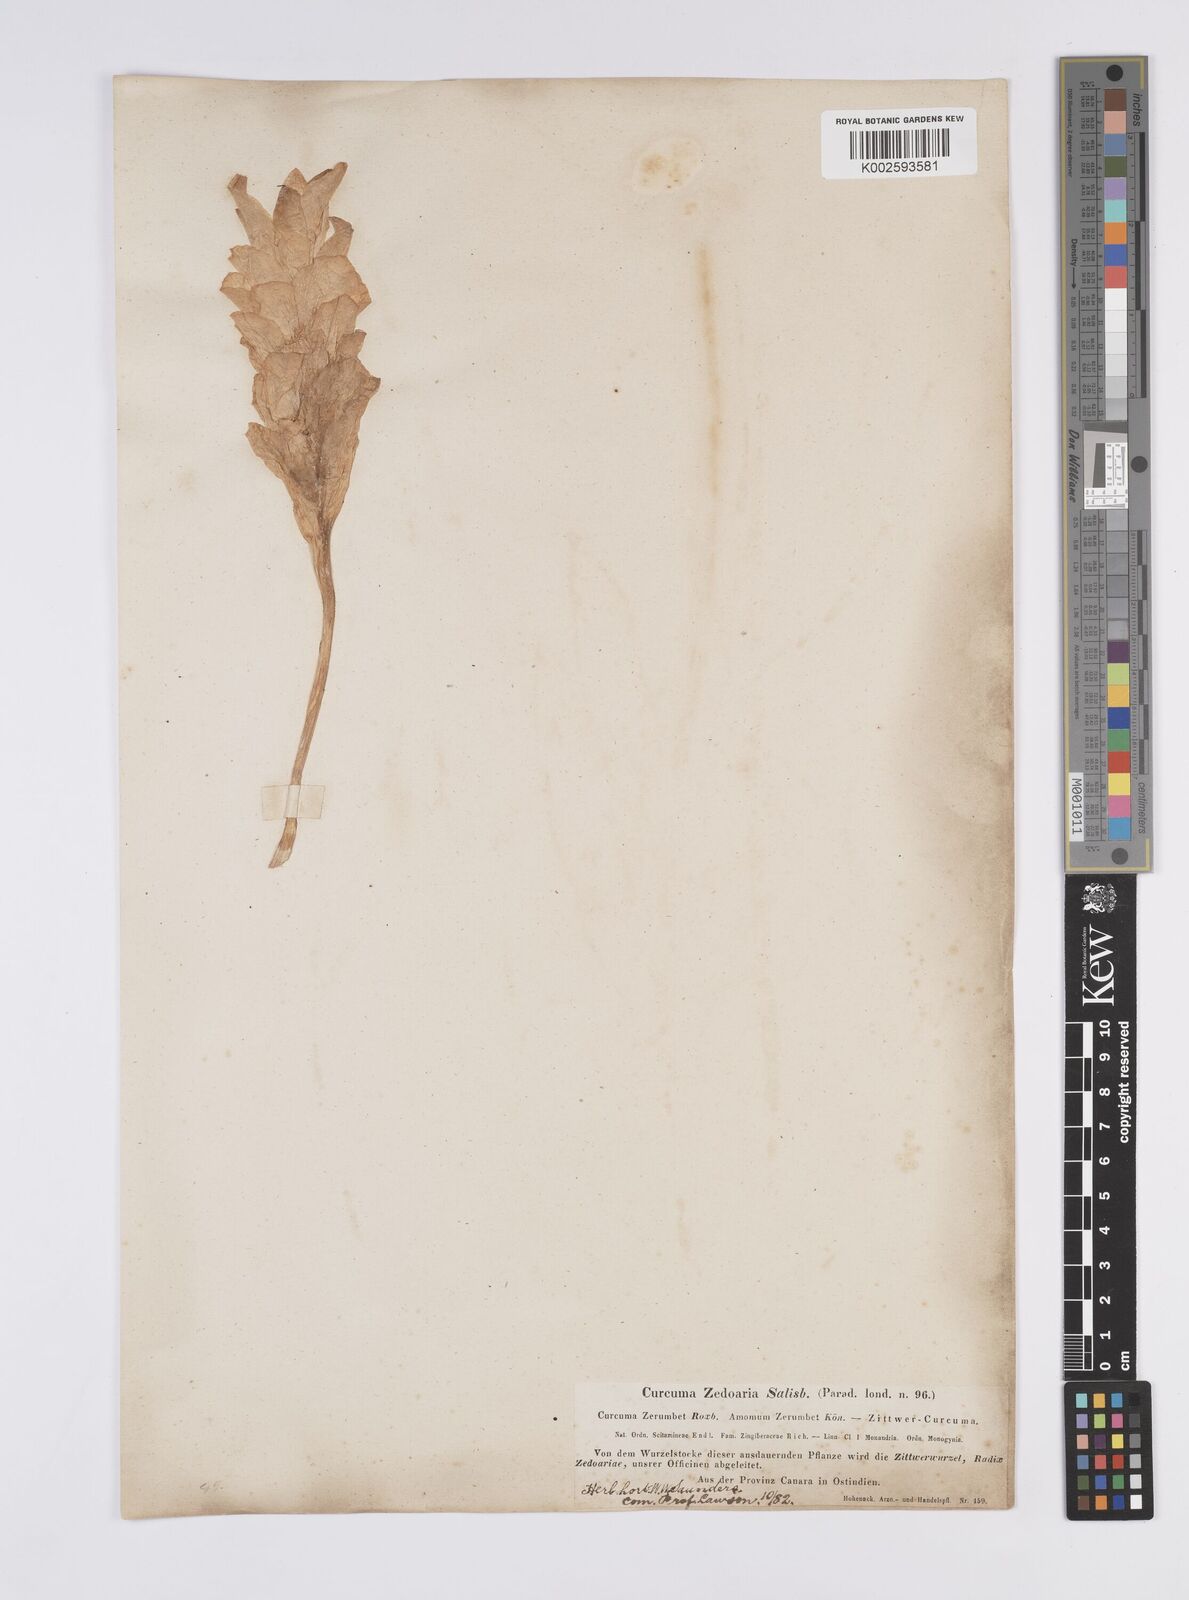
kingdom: Plantae
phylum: Tracheophyta
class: Liliopsida
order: Zingiberales
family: Zingiberaceae
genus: Curcuma
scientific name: Curcuma aromatica
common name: Wild turmeric
